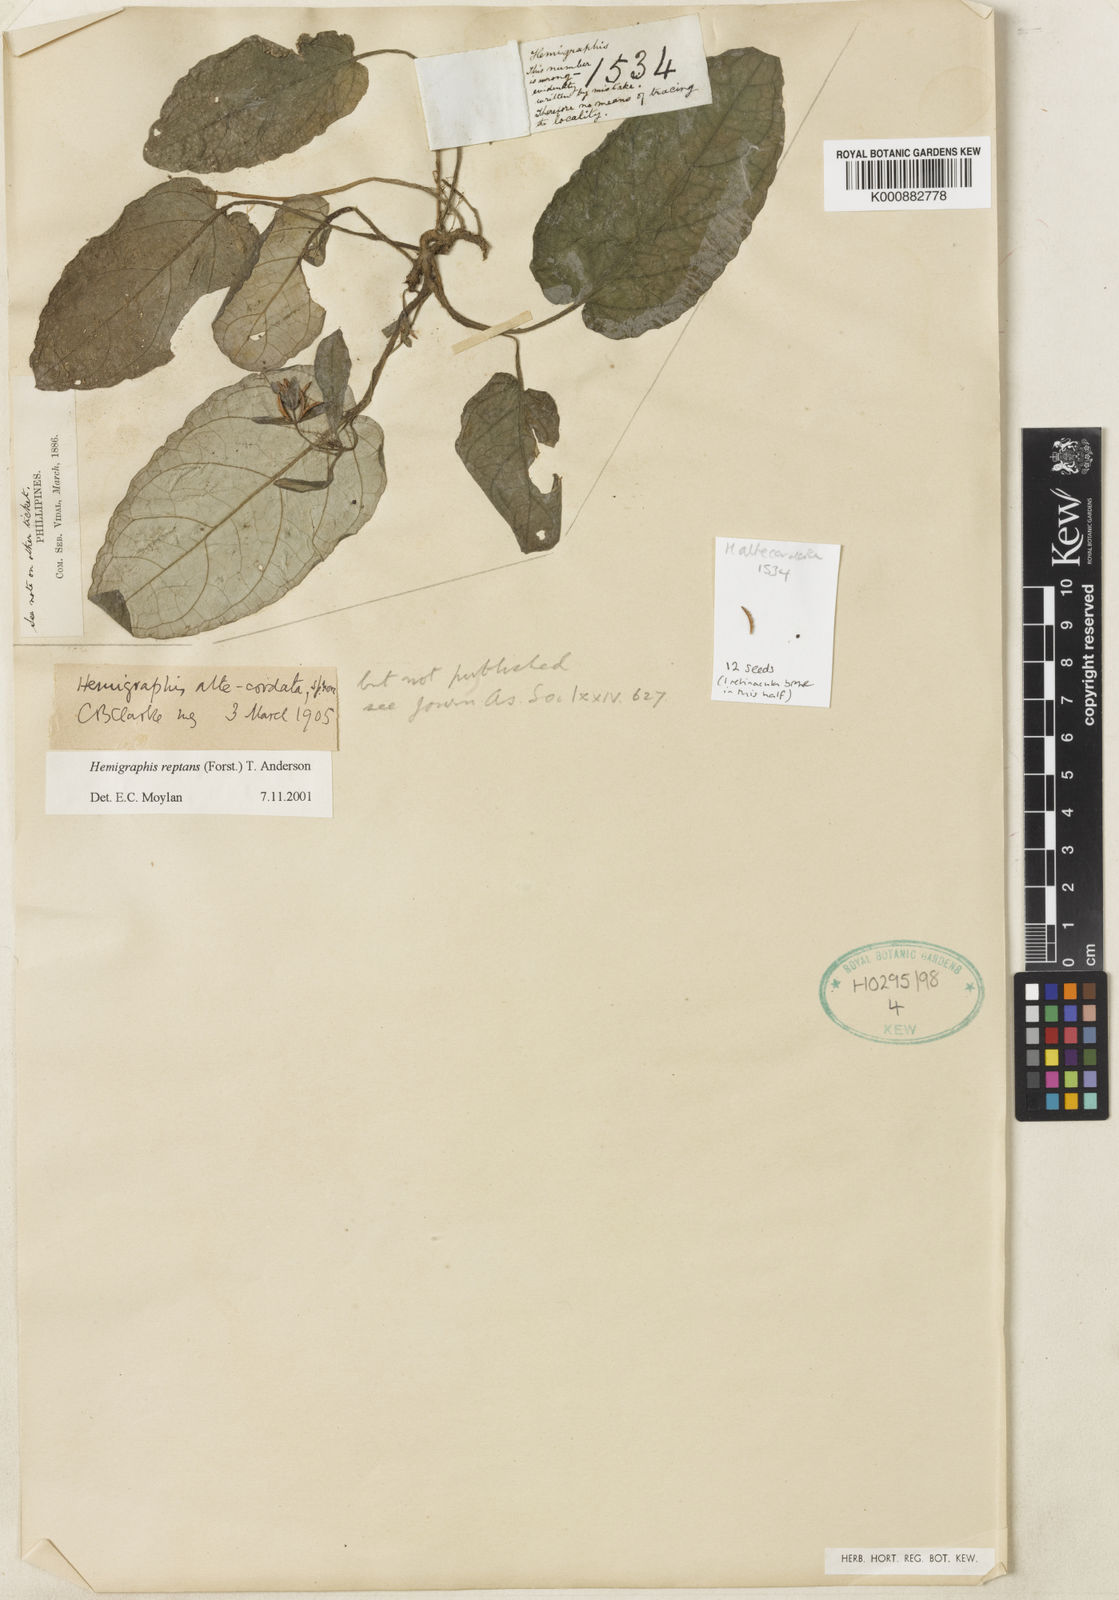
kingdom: Plantae
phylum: Tracheophyta
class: Magnoliopsida
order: Lamiales
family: Acanthaceae
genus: Strobilanthes
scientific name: Strobilanthes reptans
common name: Acanthaceae
